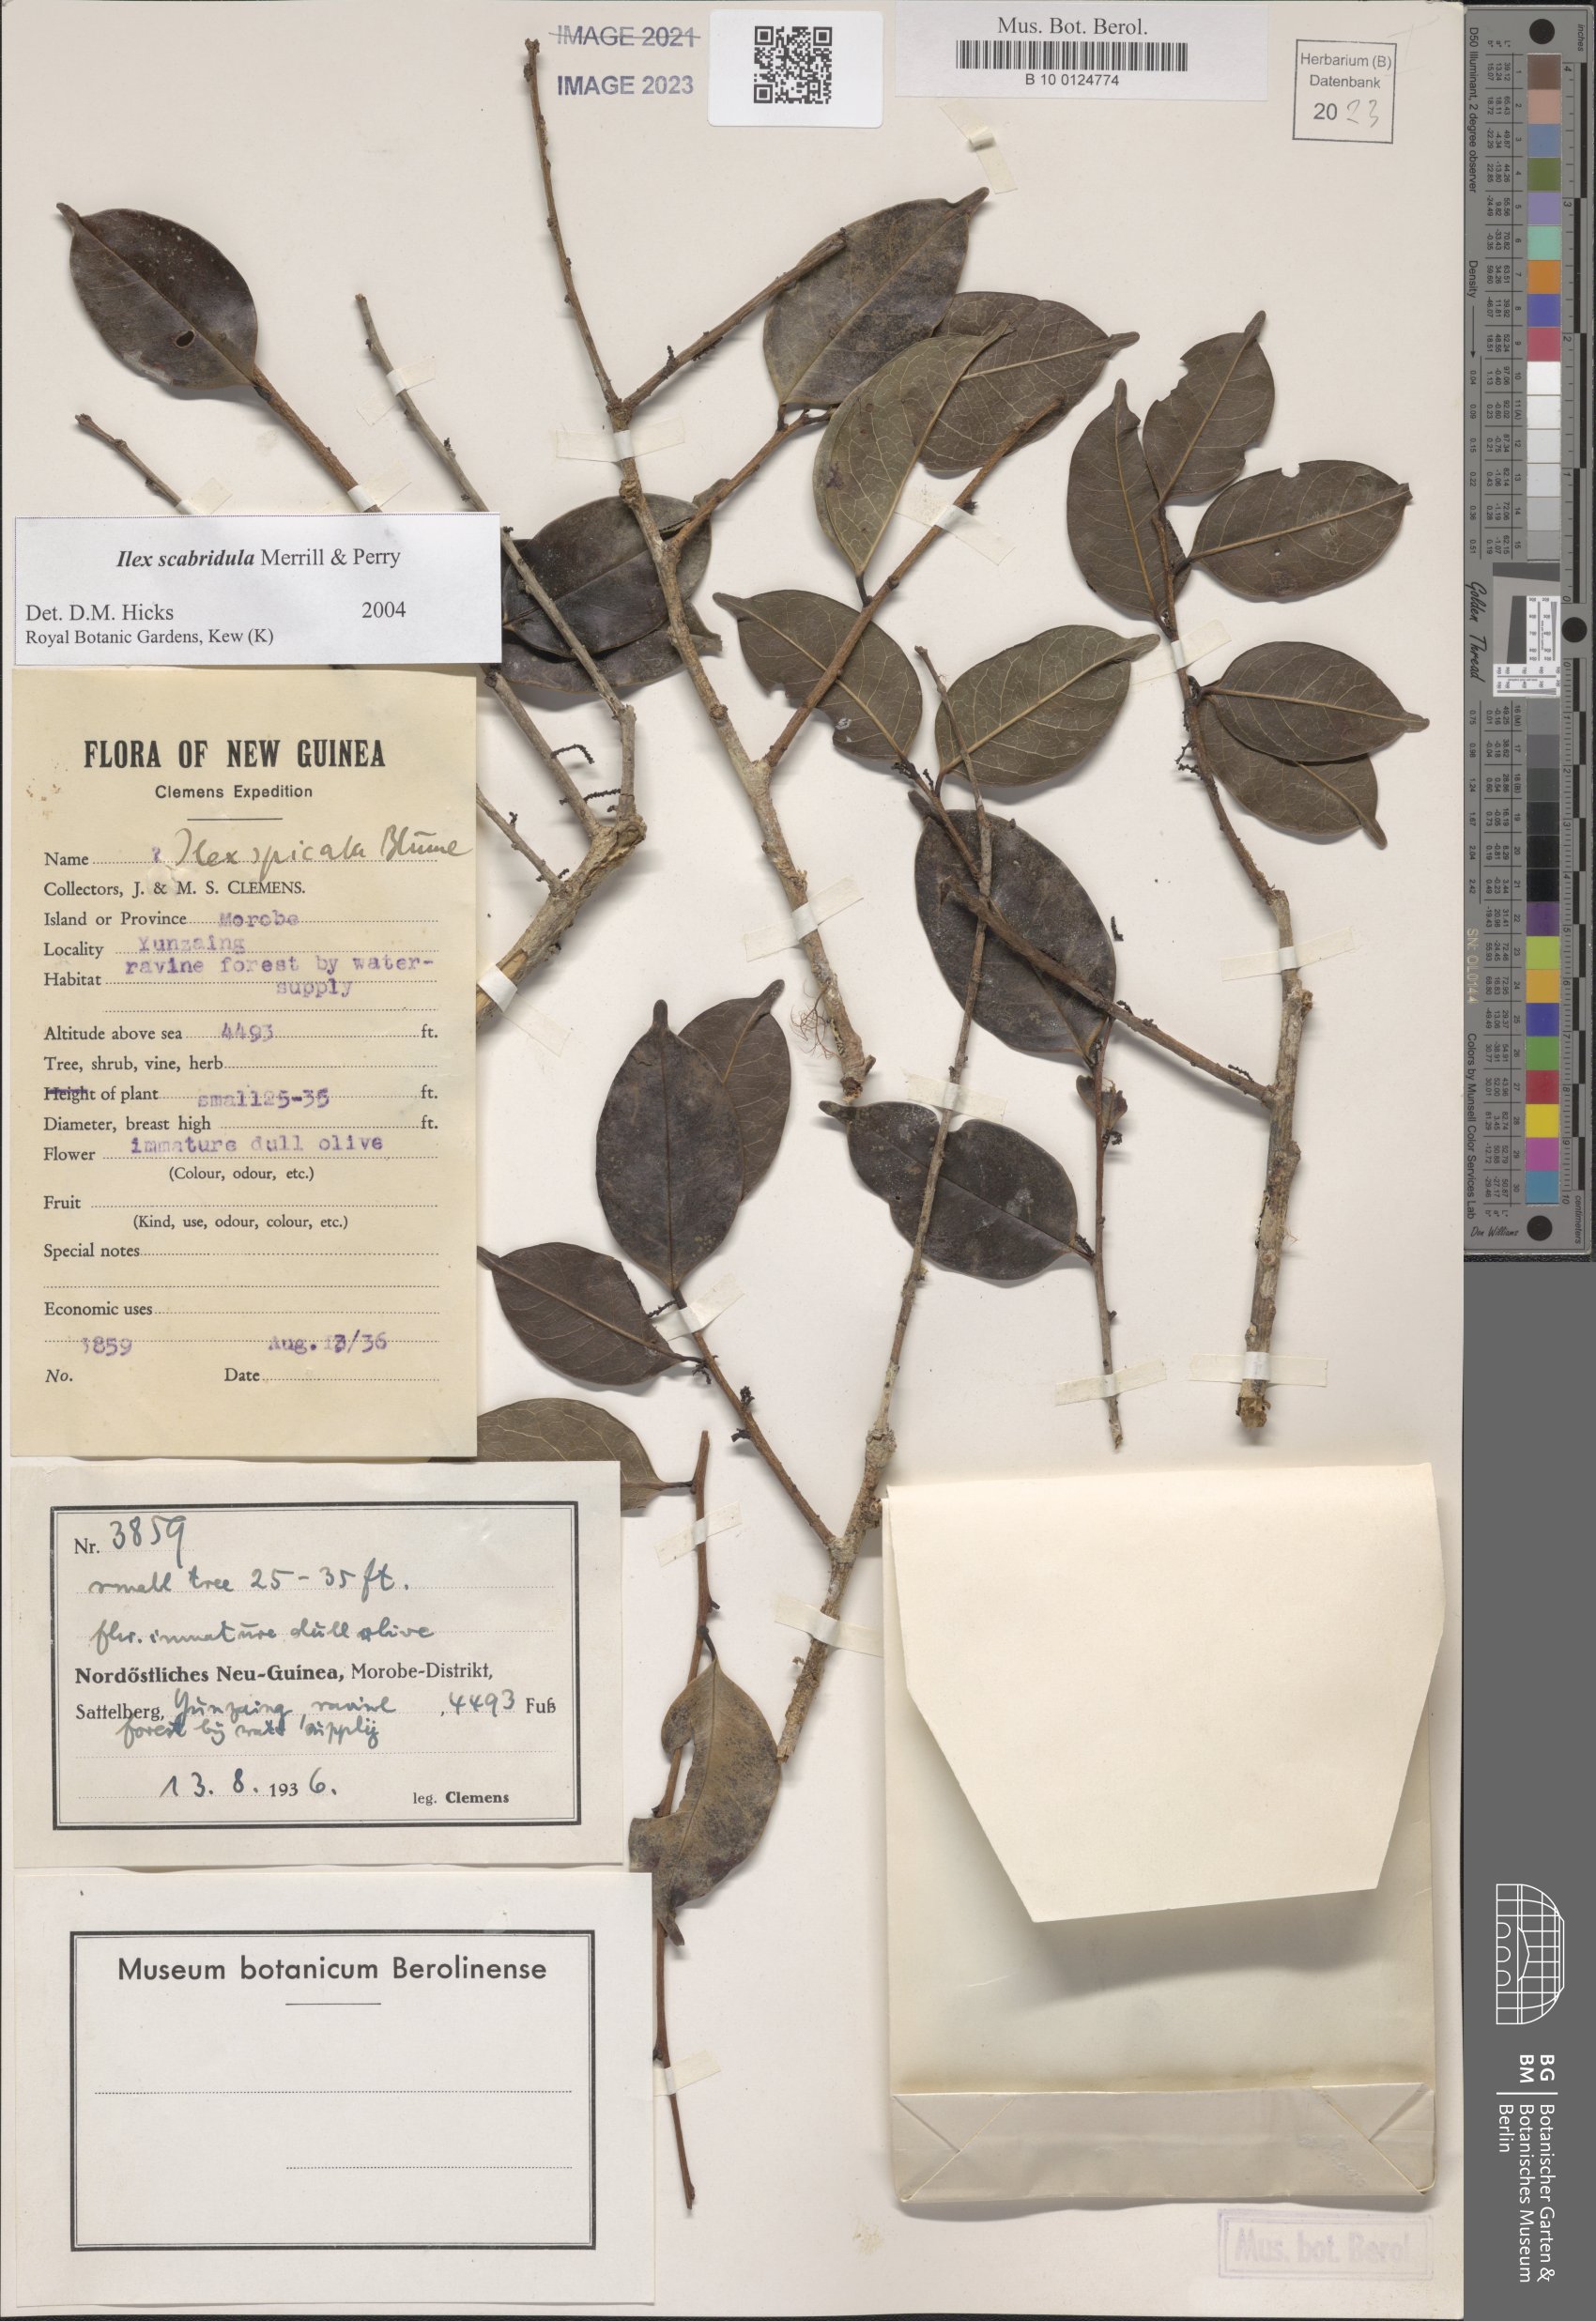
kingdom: Plantae
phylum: Tracheophyta
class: Magnoliopsida
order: Aquifoliales
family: Aquifoliaceae
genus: Ilex
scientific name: Ilex scabridula
